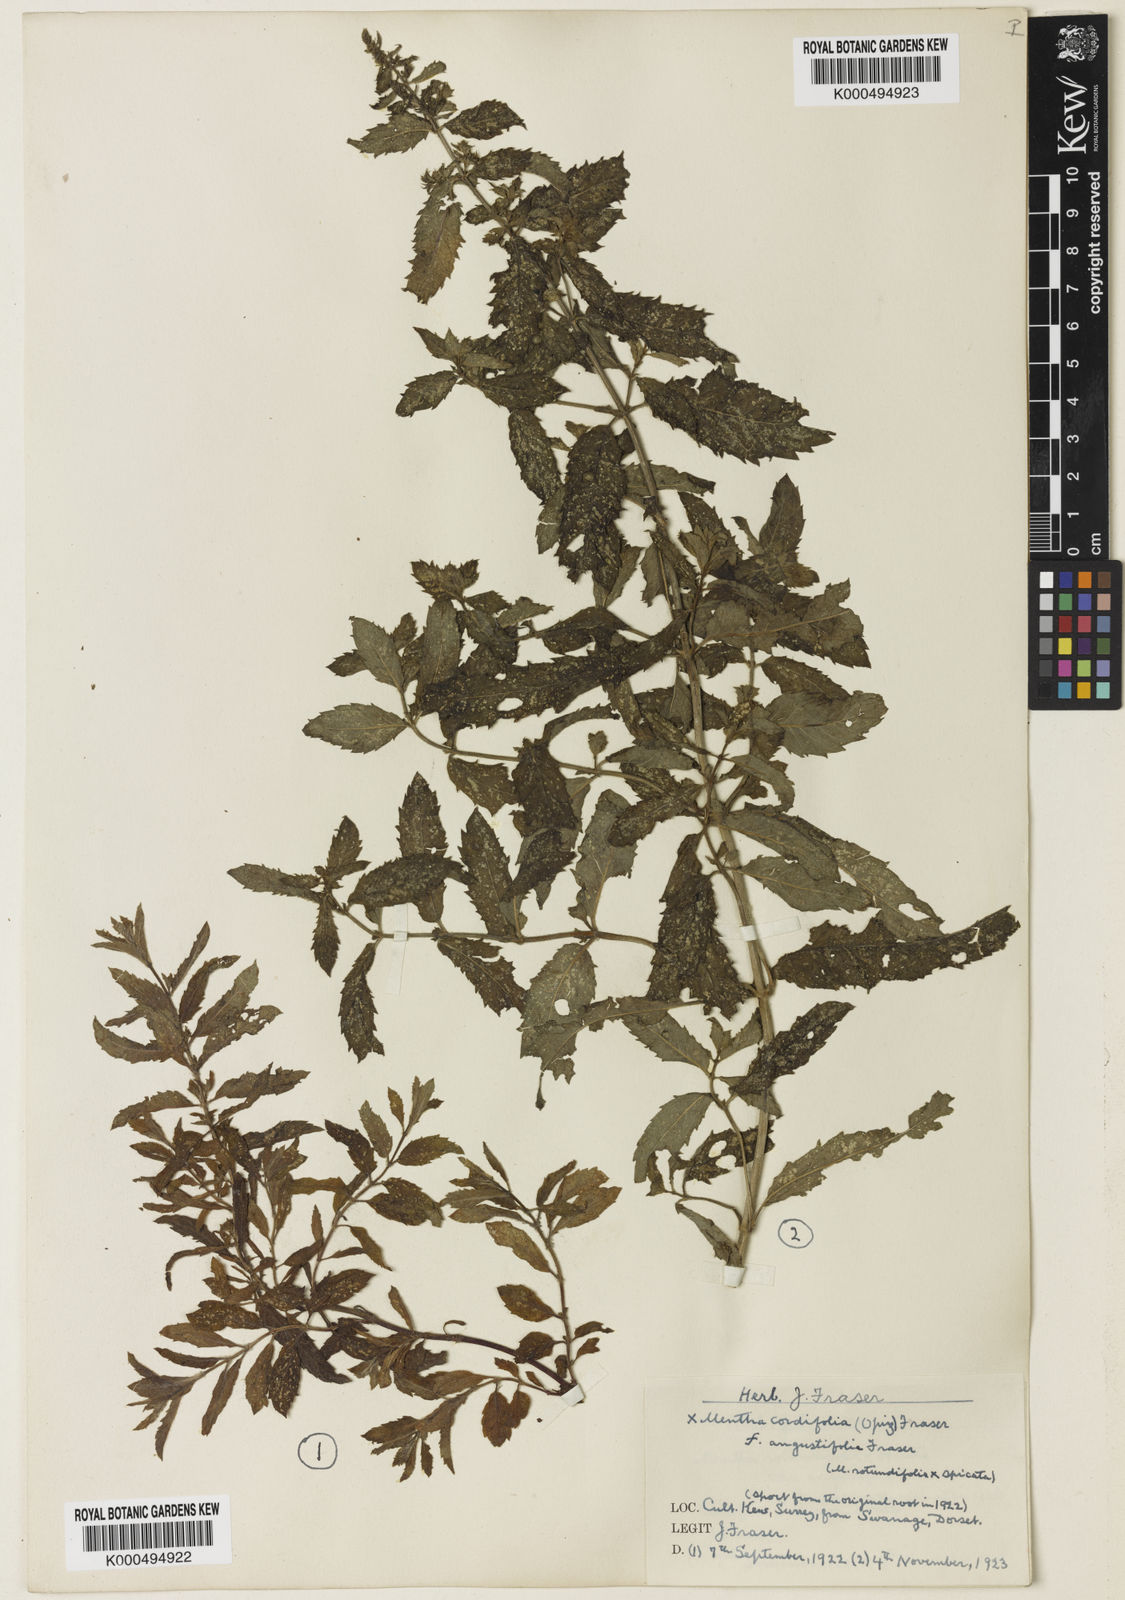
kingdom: Plantae
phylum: Tracheophyta
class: Magnoliopsida
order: Lamiales
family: Lamiaceae
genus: Mentha
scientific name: Mentha spicata
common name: Spearmint
